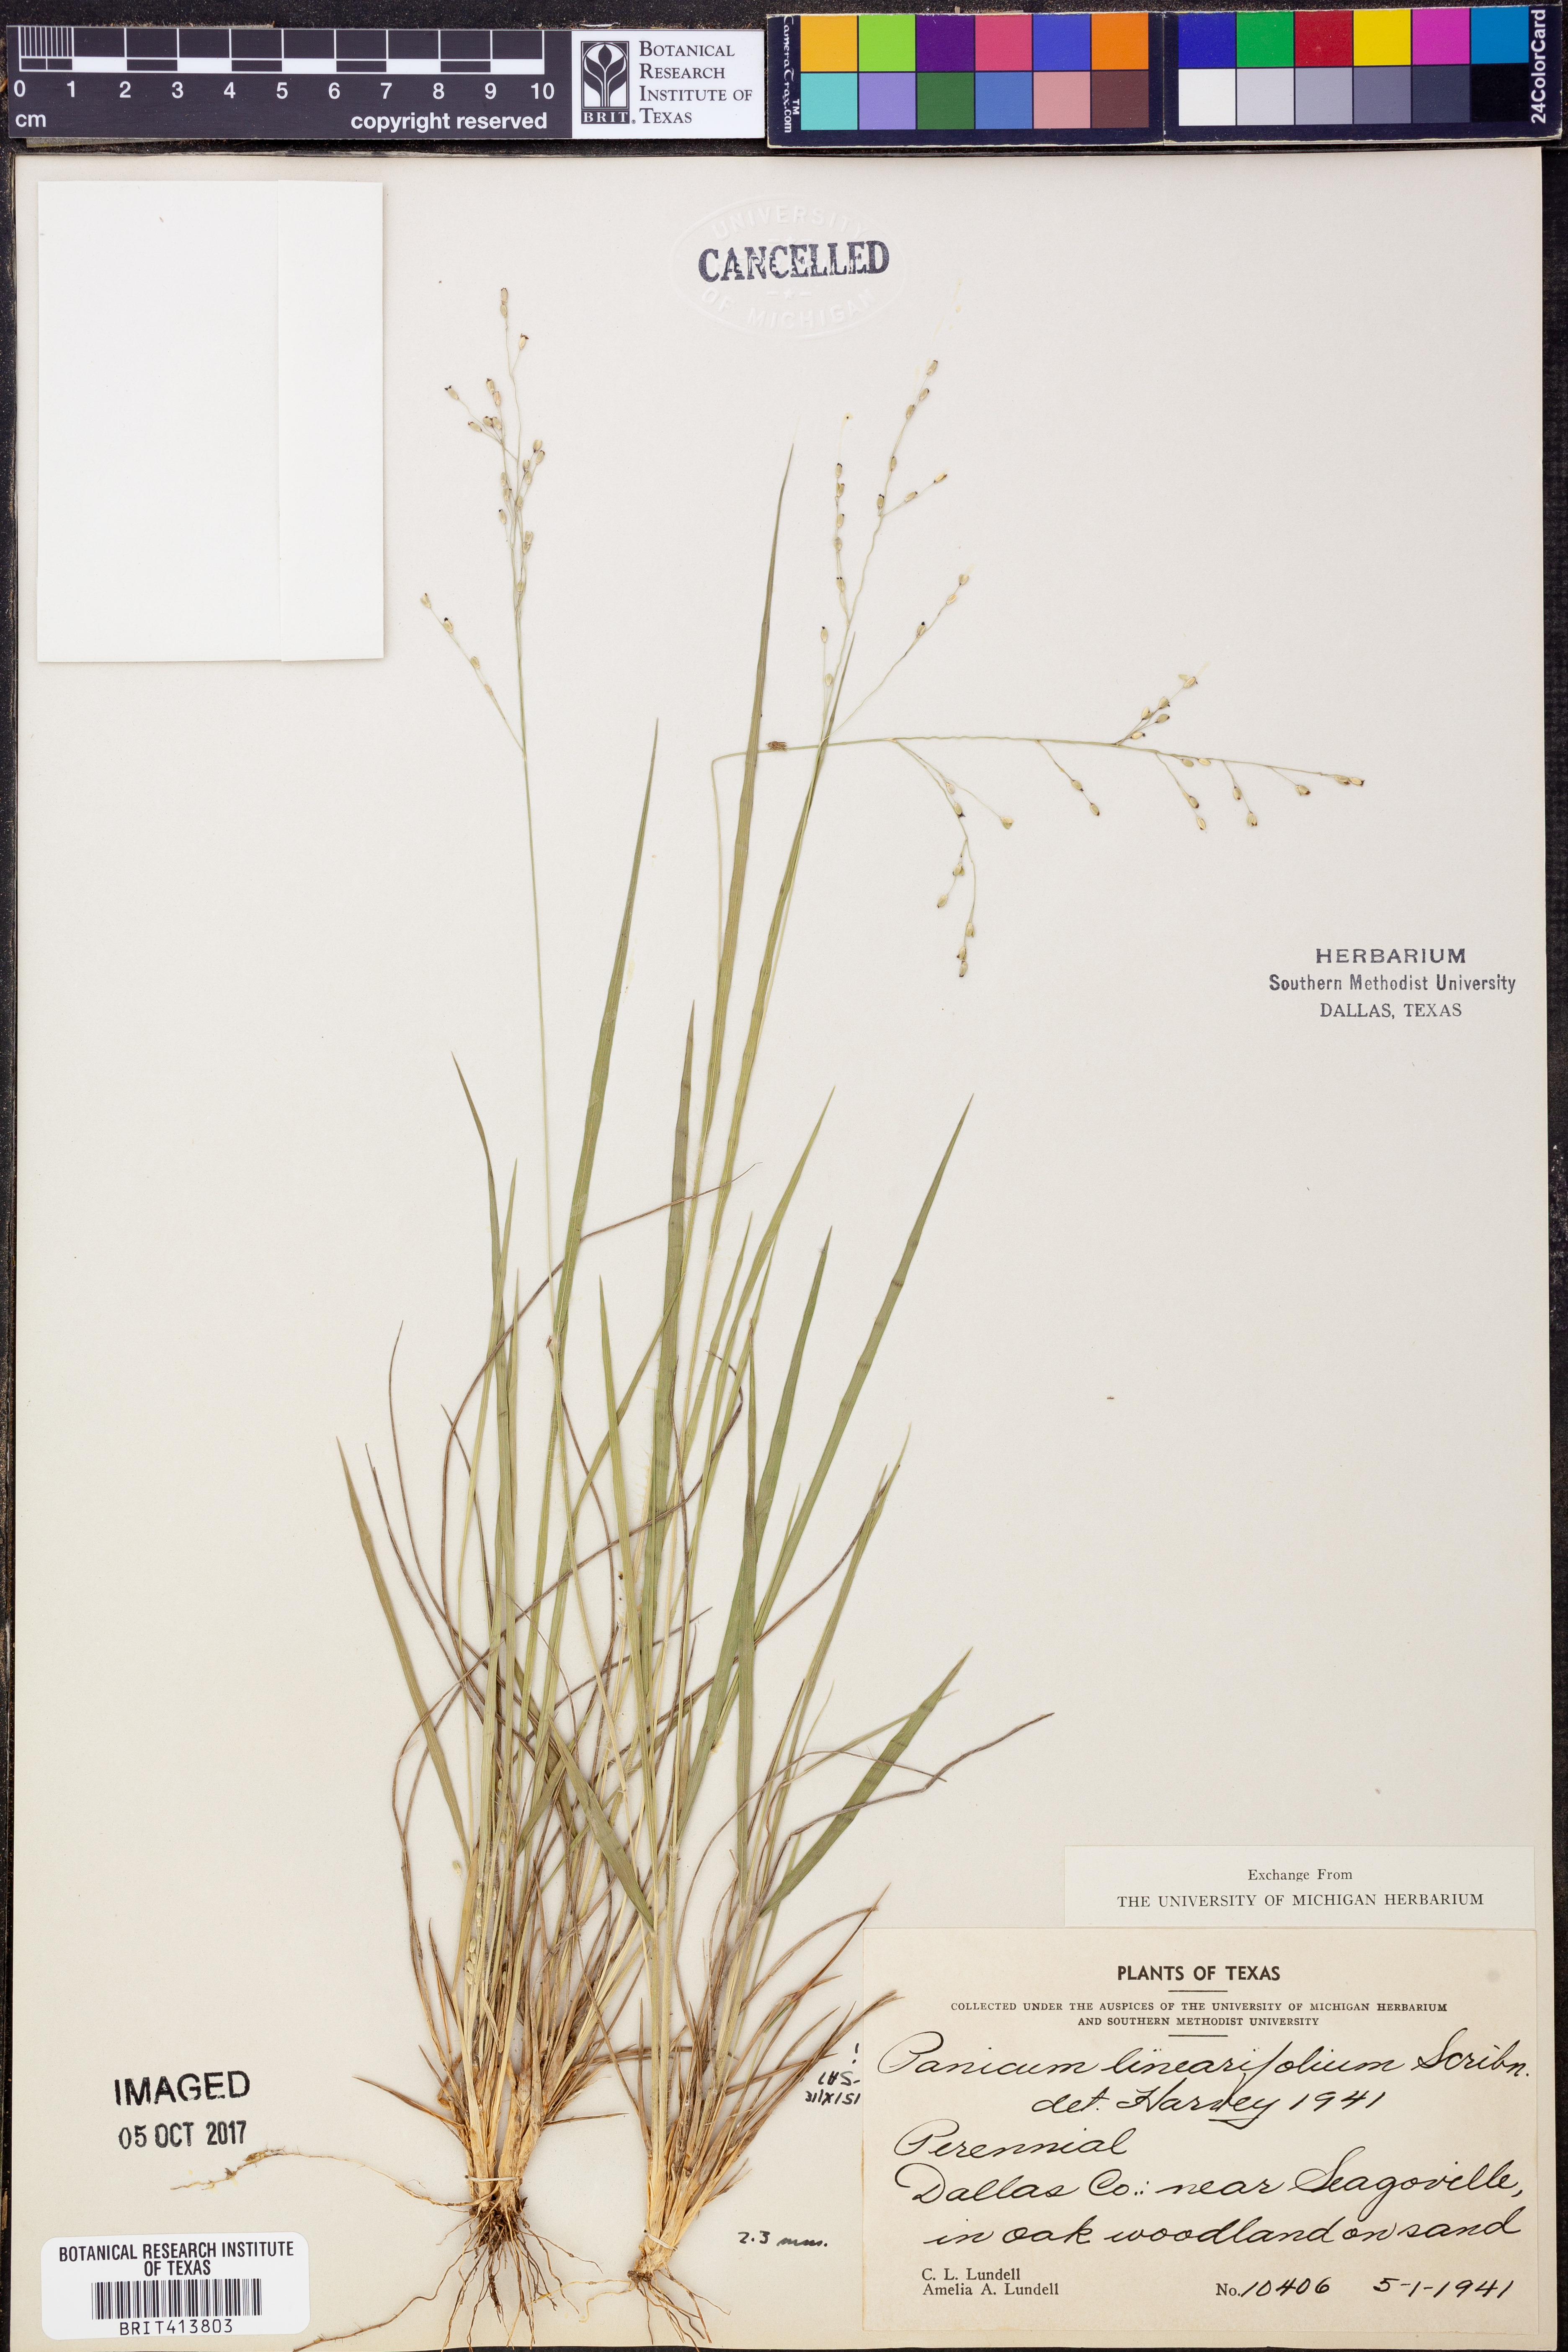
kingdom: Plantae
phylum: Tracheophyta
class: Liliopsida
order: Poales
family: Poaceae
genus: Dichanthelium
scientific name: Dichanthelium linearifolium
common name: Linear-leaved panicgrass
